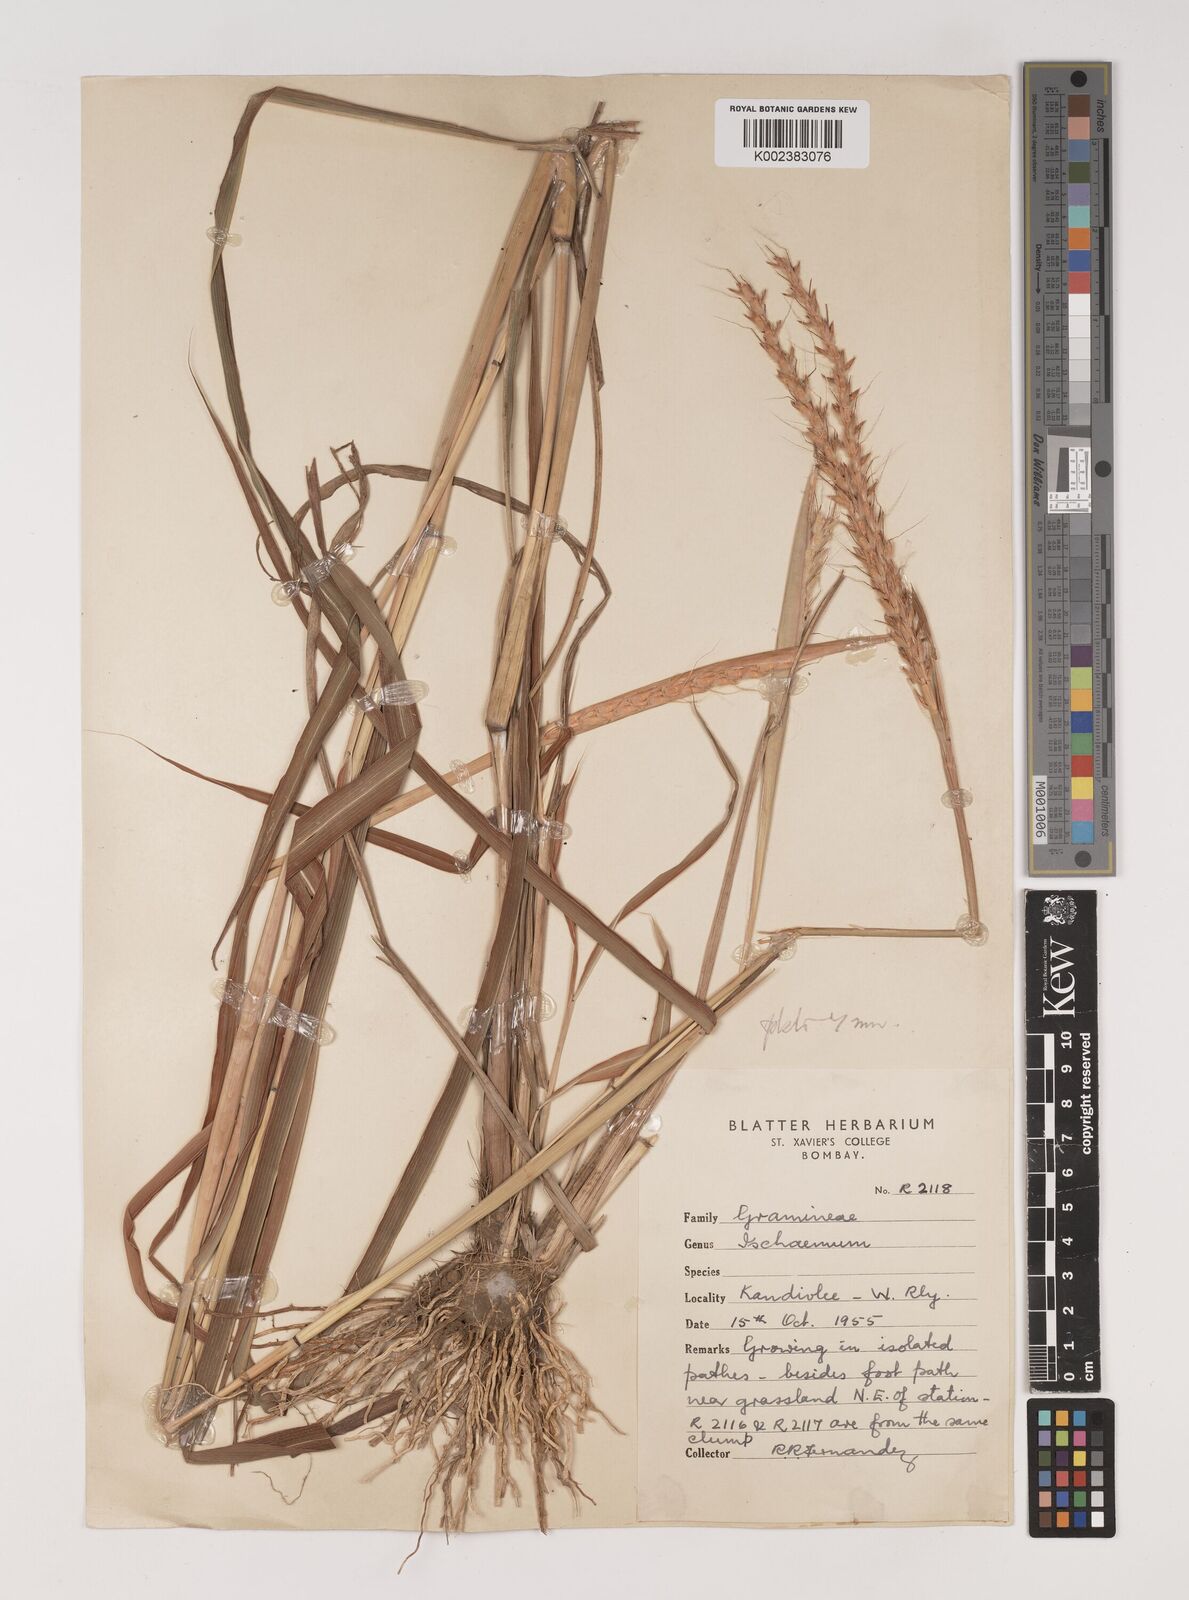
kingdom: Plantae
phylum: Tracheophyta
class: Liliopsida
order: Poales
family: Poaceae
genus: Ischaemum
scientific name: Ischaemum molle
